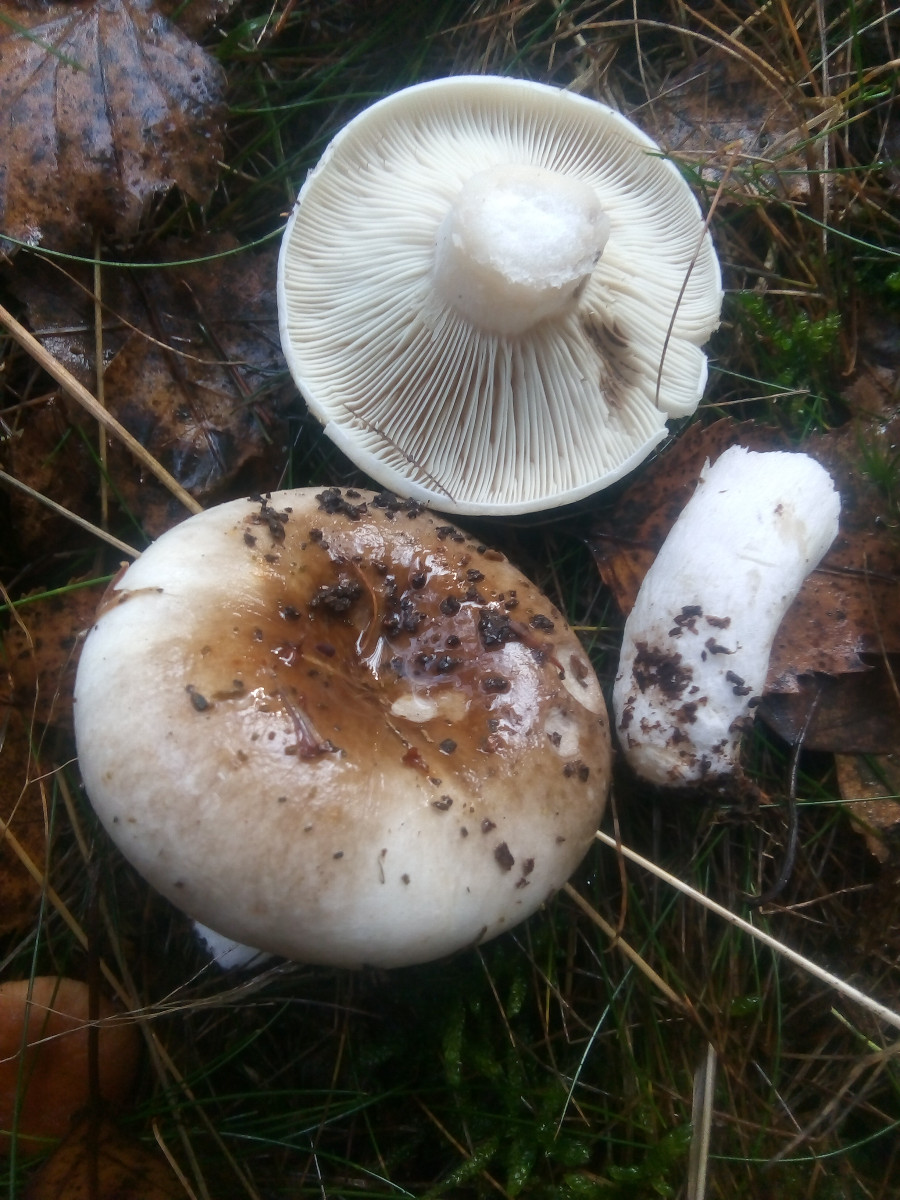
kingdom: Fungi
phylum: Basidiomycota
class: Agaricomycetes
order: Russulales
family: Russulaceae
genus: Russula
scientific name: Russula densifolia
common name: tætbladet skørhat
